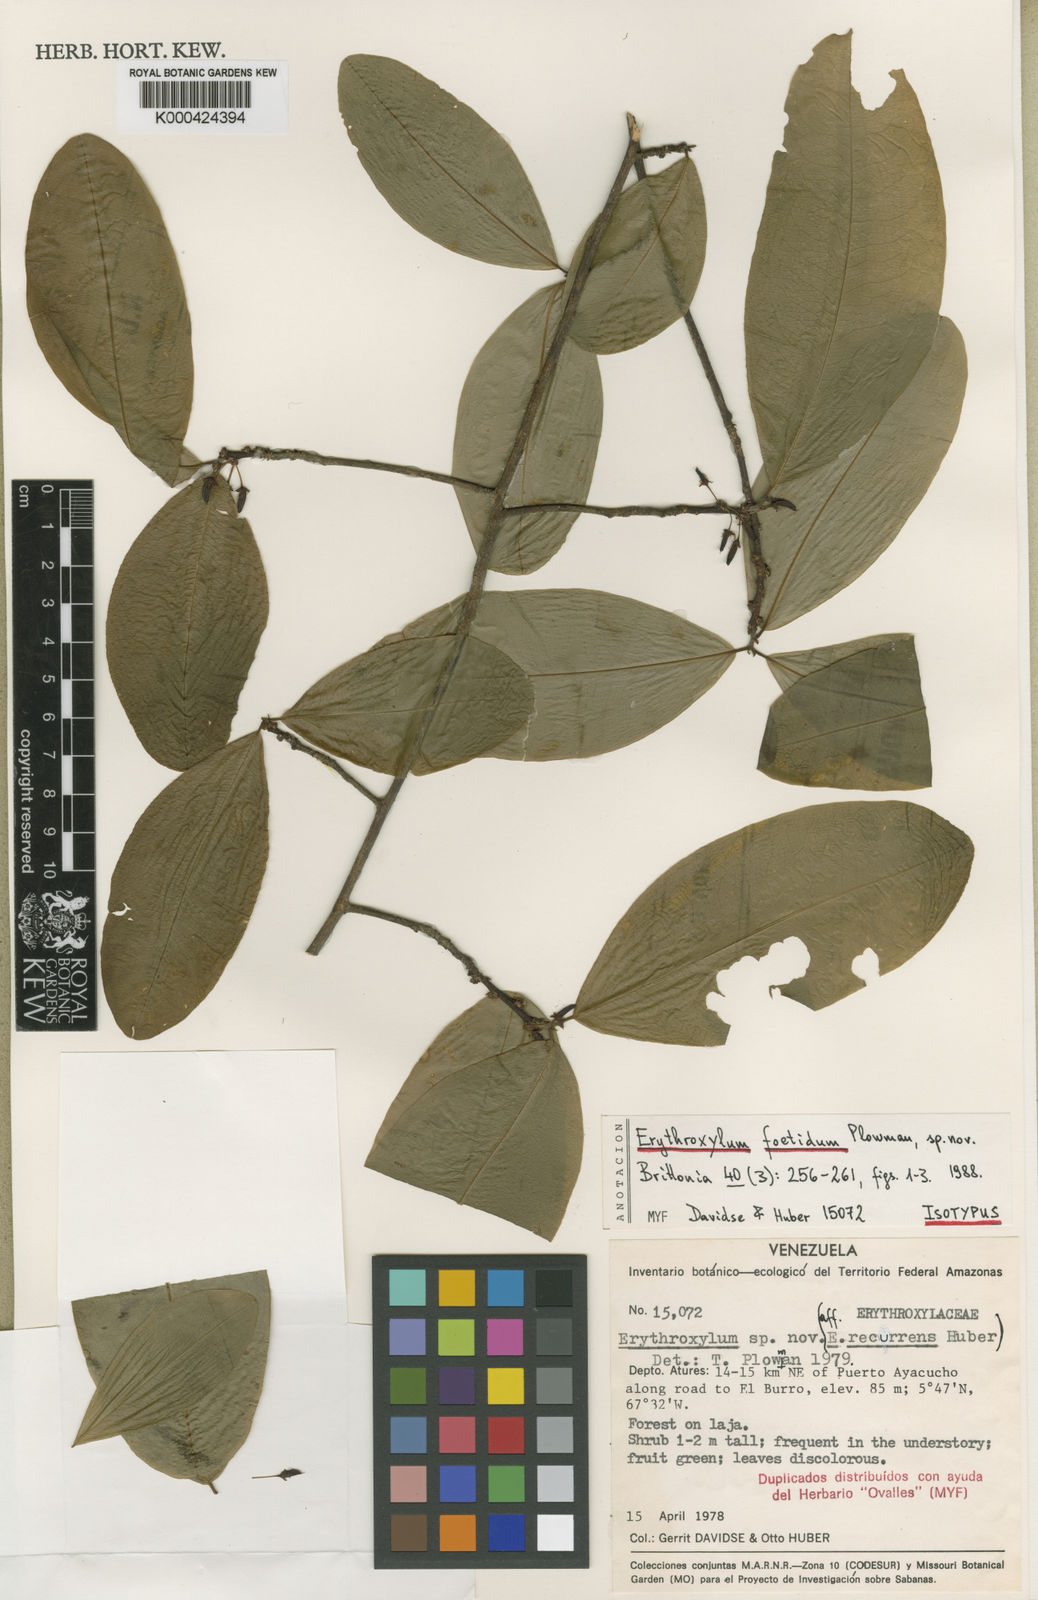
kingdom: Plantae
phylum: Tracheophyta
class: Magnoliopsida
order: Malpighiales
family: Erythroxylaceae
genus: Erythroxylum
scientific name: Erythroxylum foetidum
